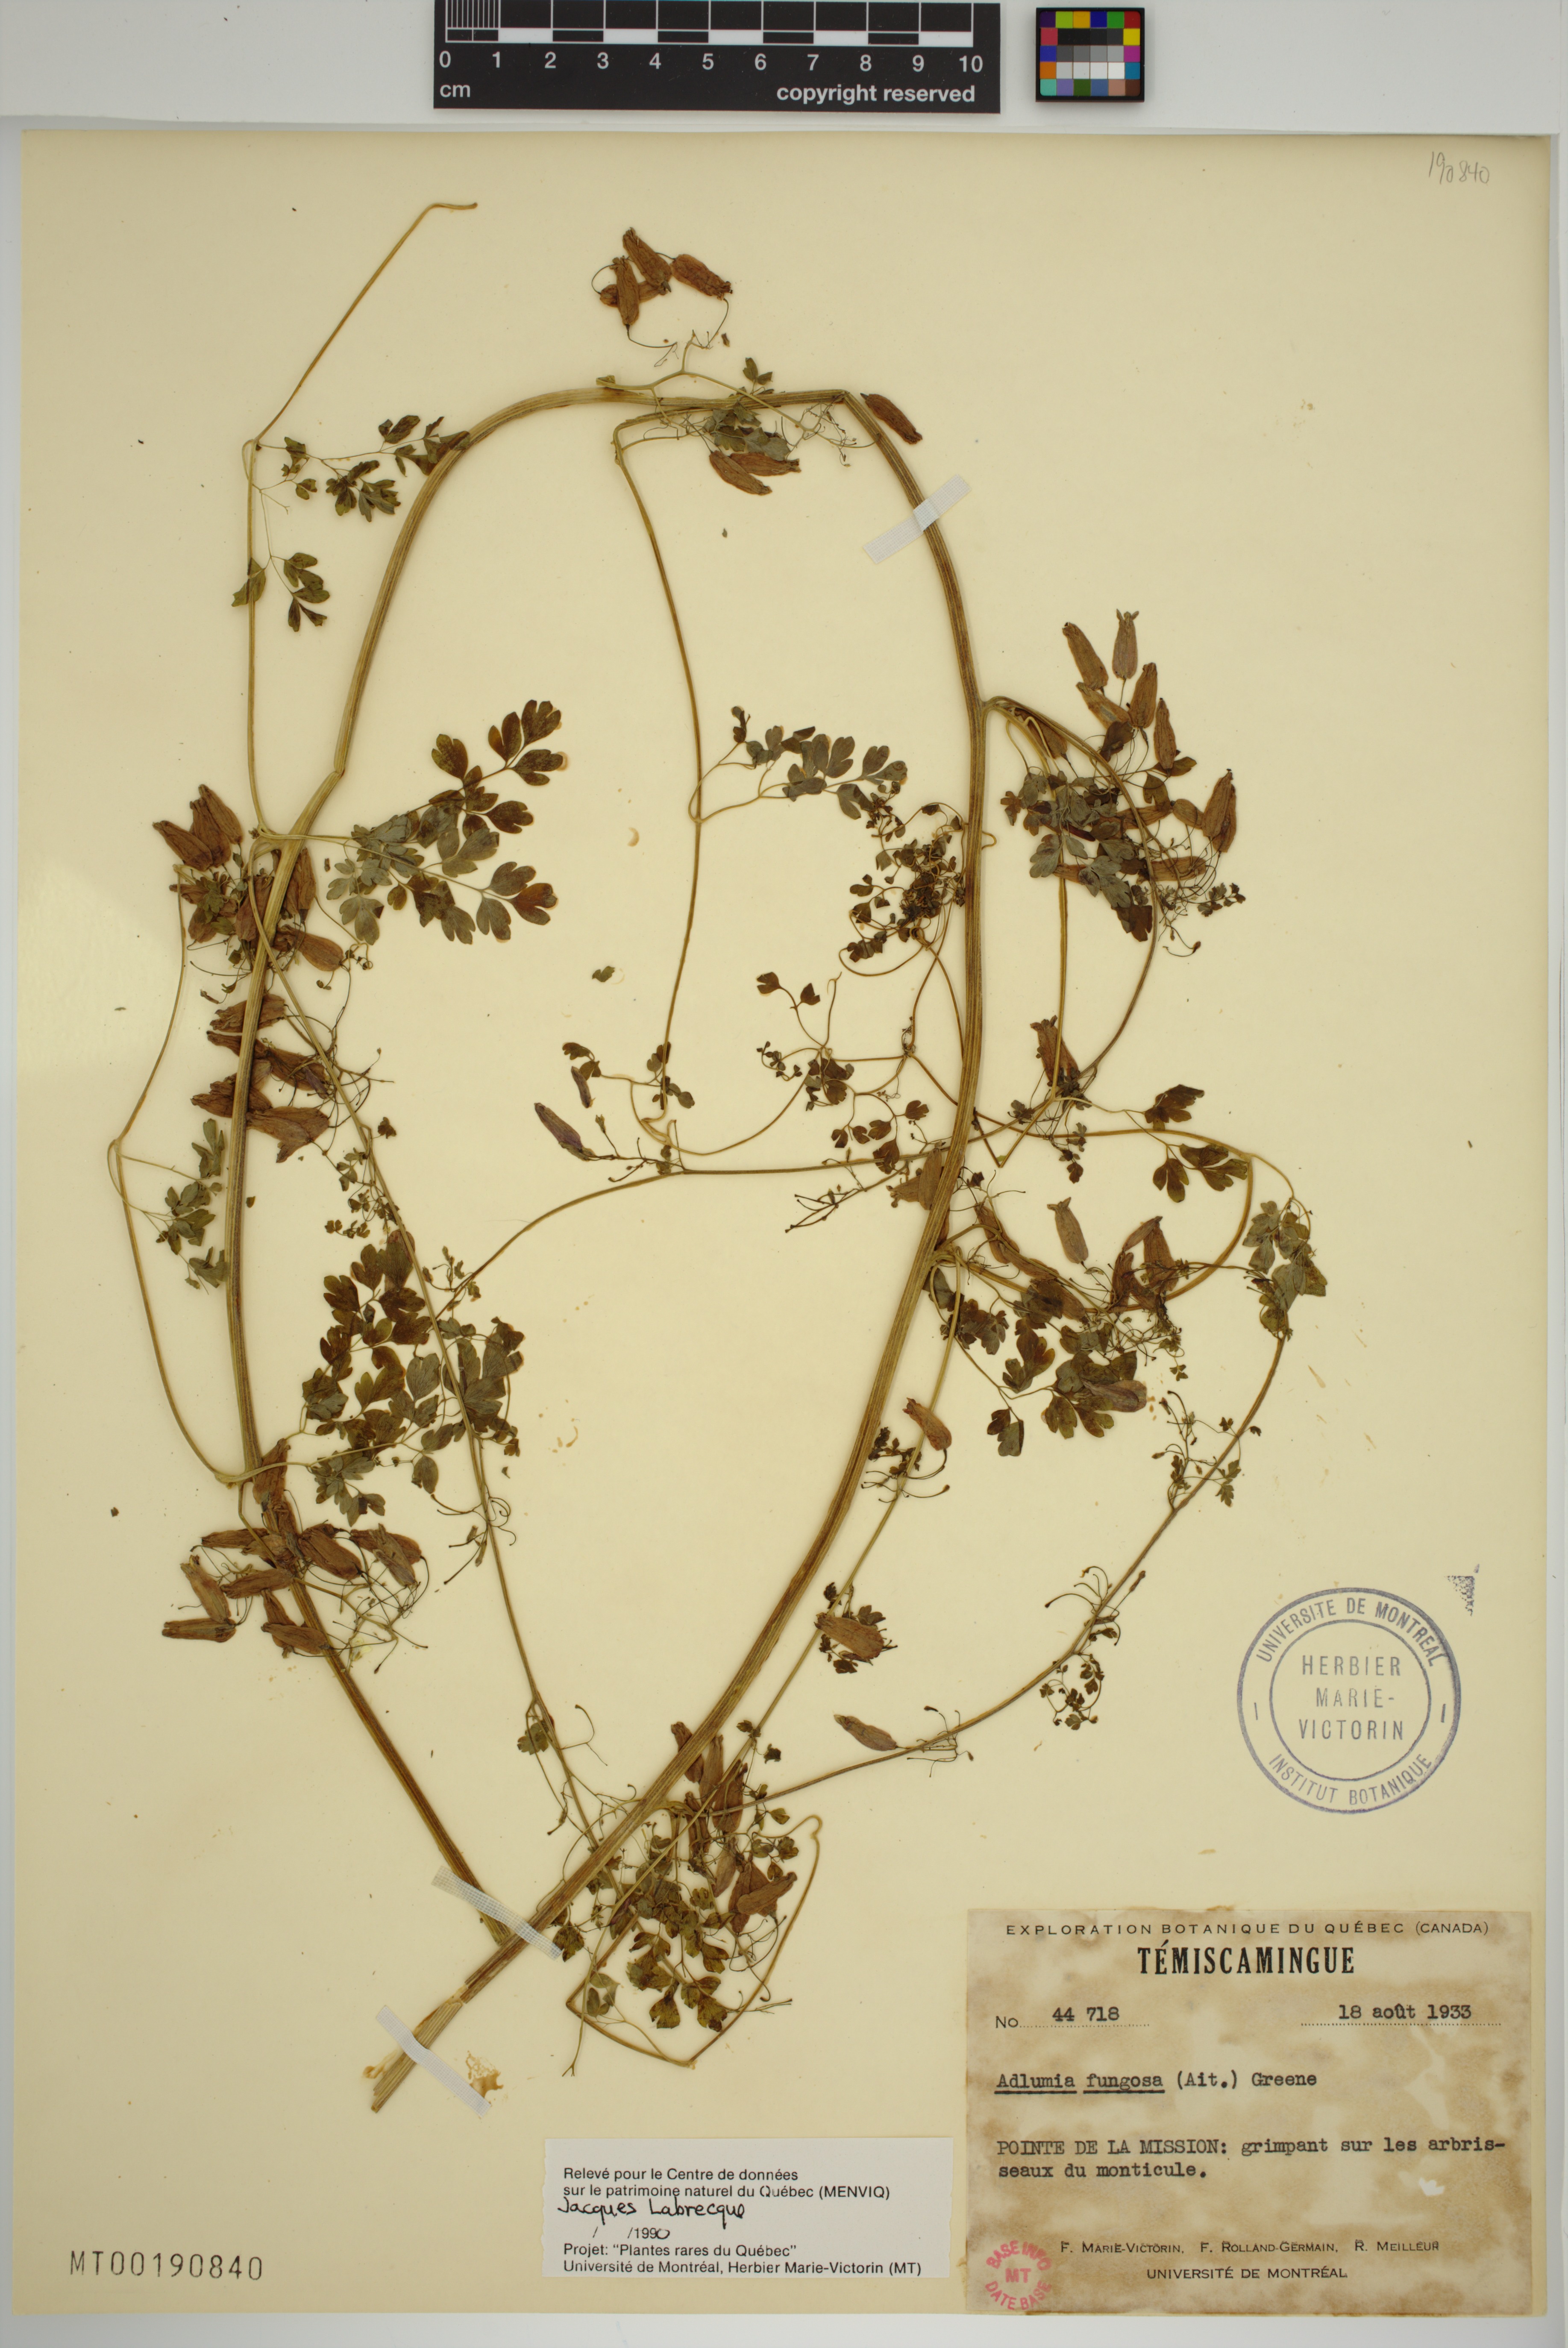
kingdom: Plantae
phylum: Tracheophyta
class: Magnoliopsida
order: Ranunculales
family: Papaveraceae
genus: Adlumia
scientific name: Adlumia fungosa
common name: Mountain-fringe
